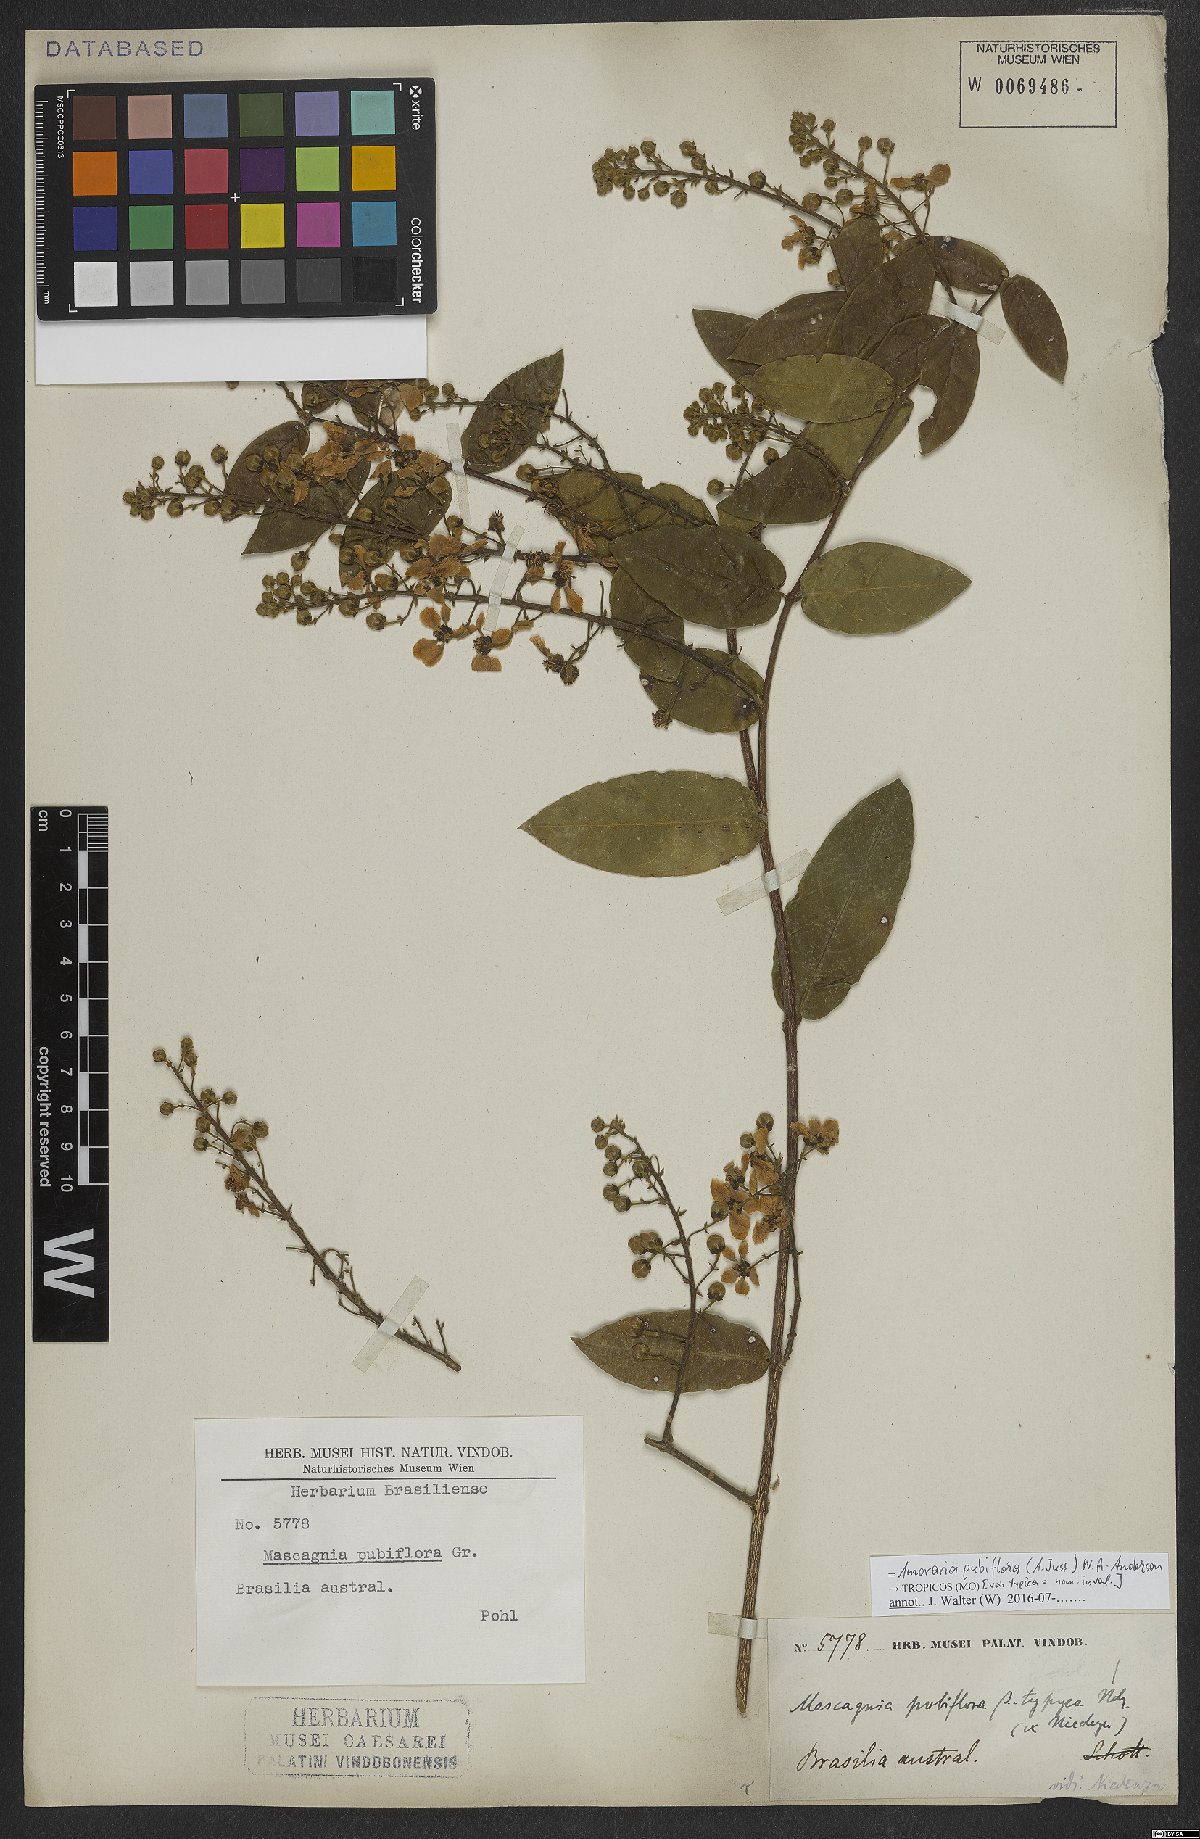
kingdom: Plantae
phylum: Tracheophyta
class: Magnoliopsida
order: Malpighiales
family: Malpighiaceae
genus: Amorimia
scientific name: Amorimia pubiflora
